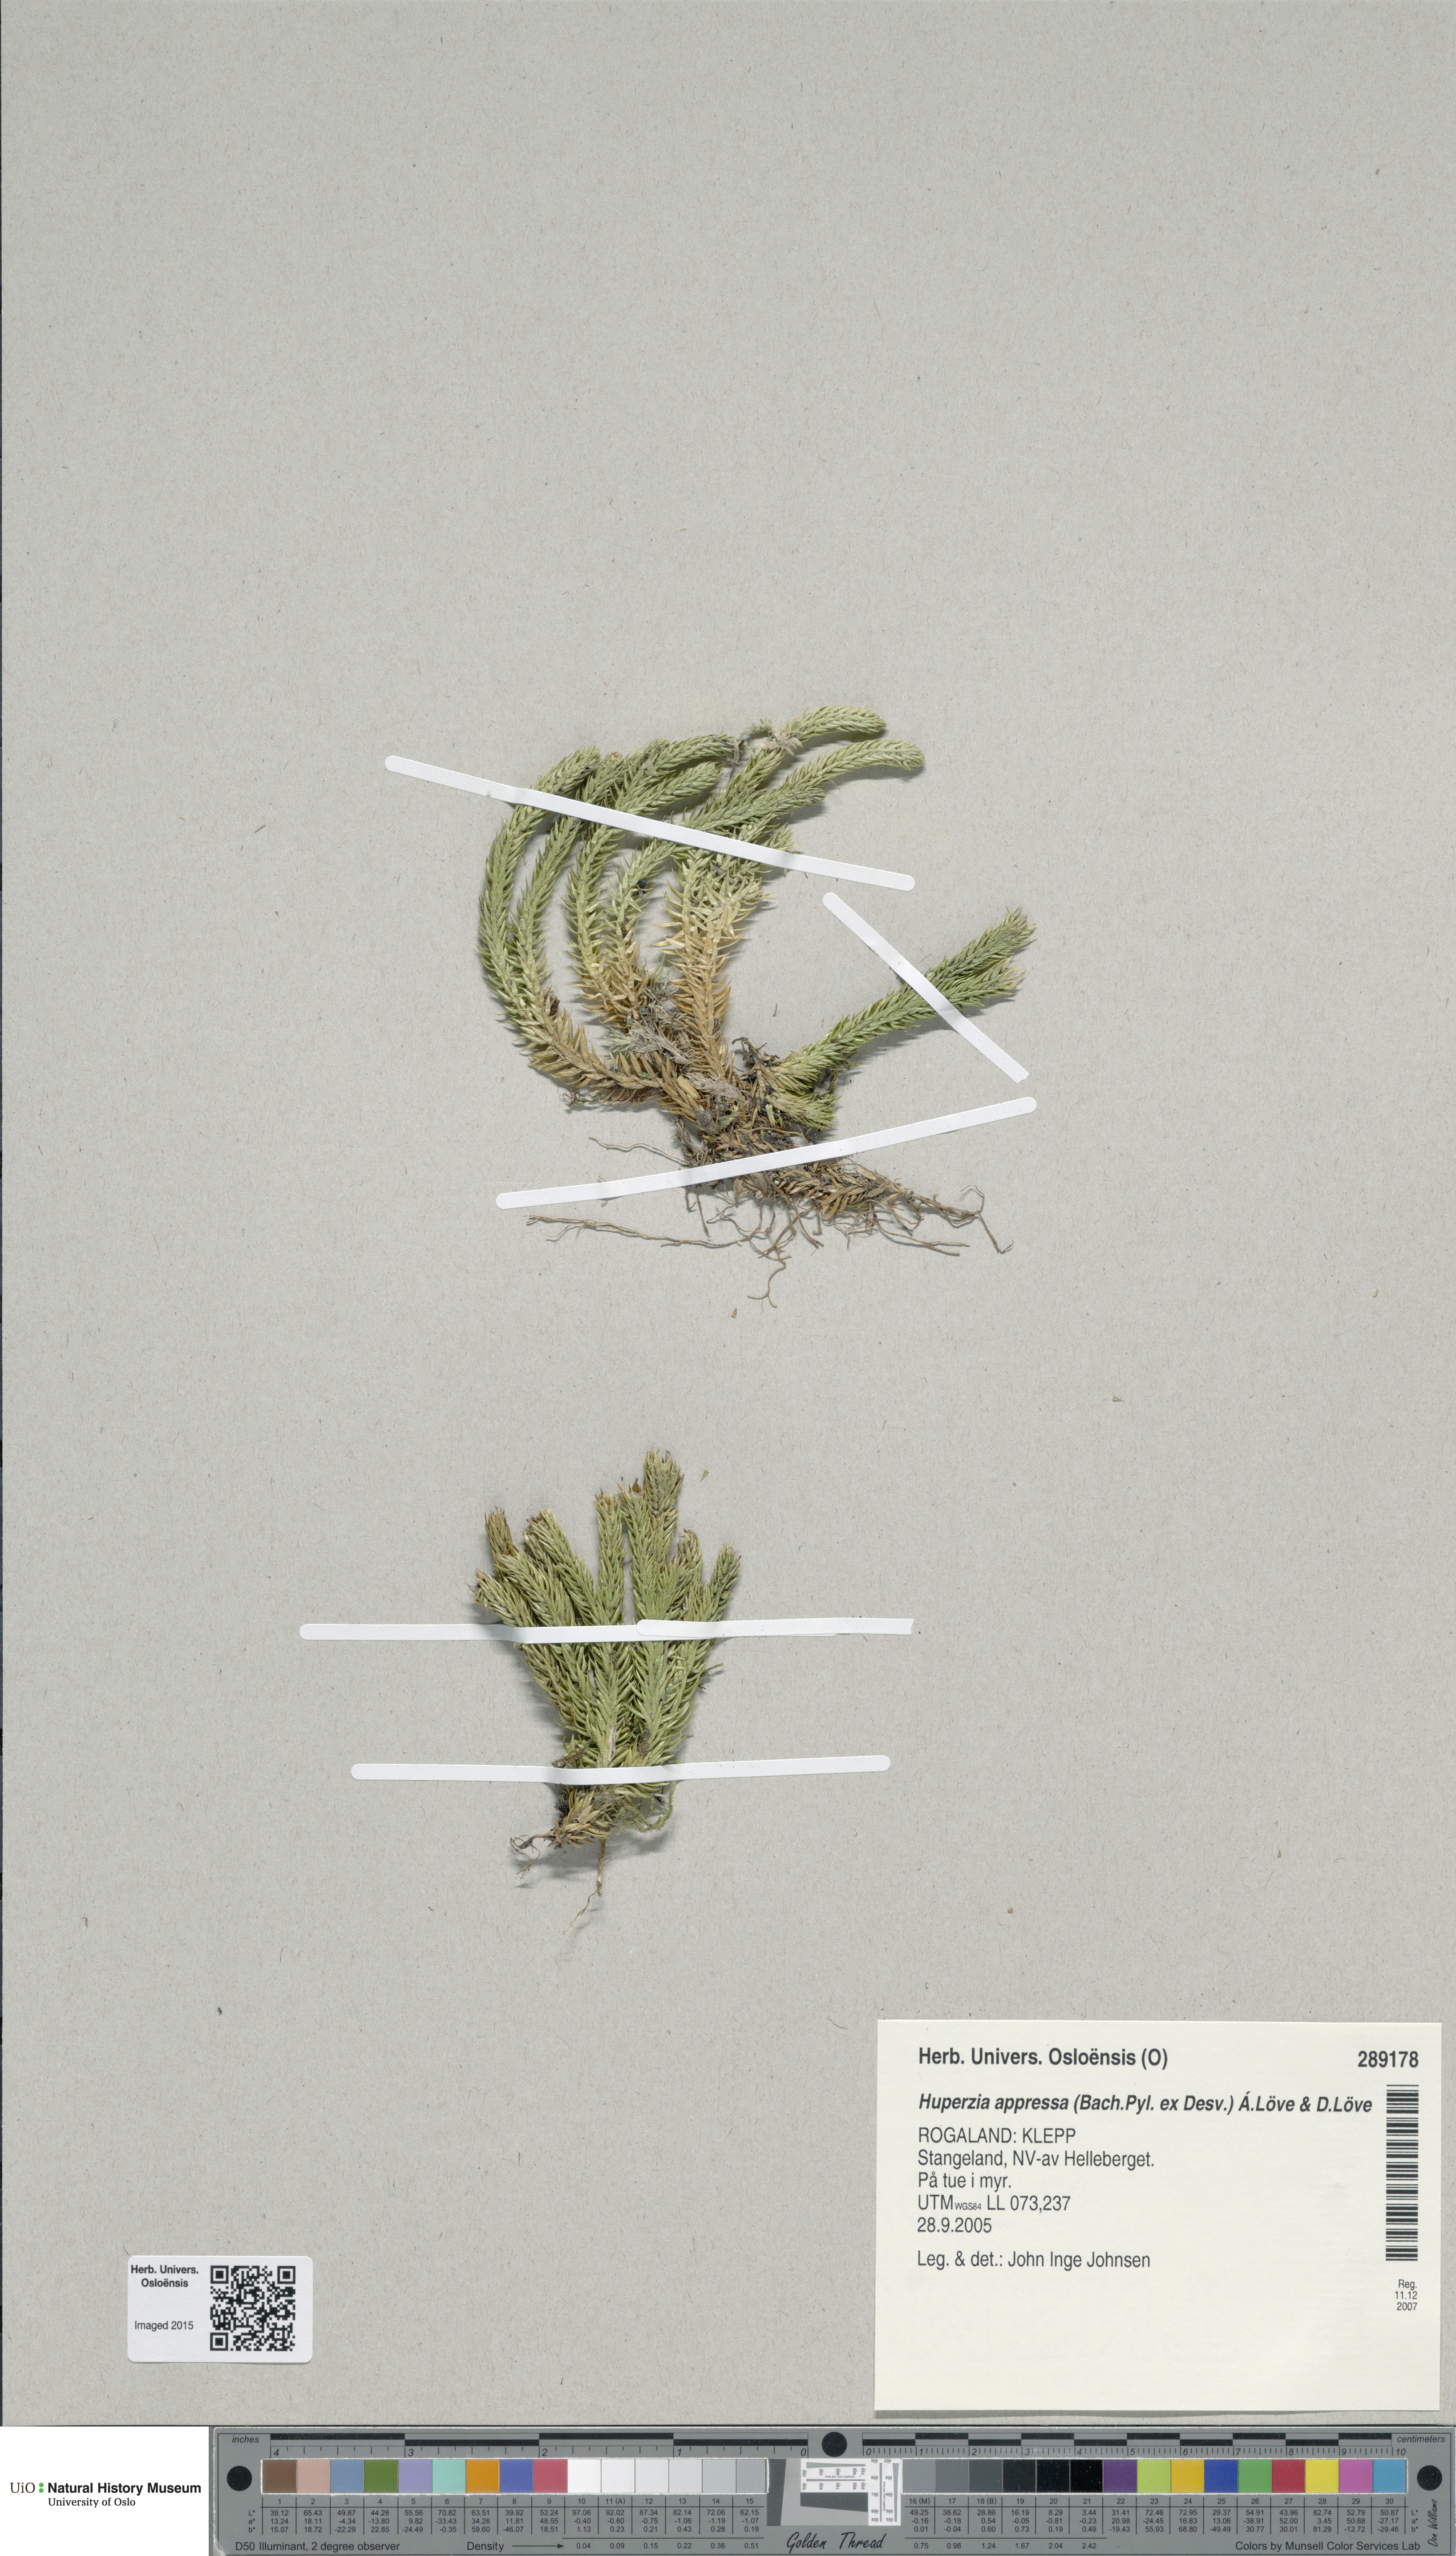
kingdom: Plantae
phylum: Tracheophyta
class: Lycopodiopsida
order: Lycopodiales
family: Lycopodiaceae
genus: Huperzia
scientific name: Huperzia selago
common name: Northern firmoss
